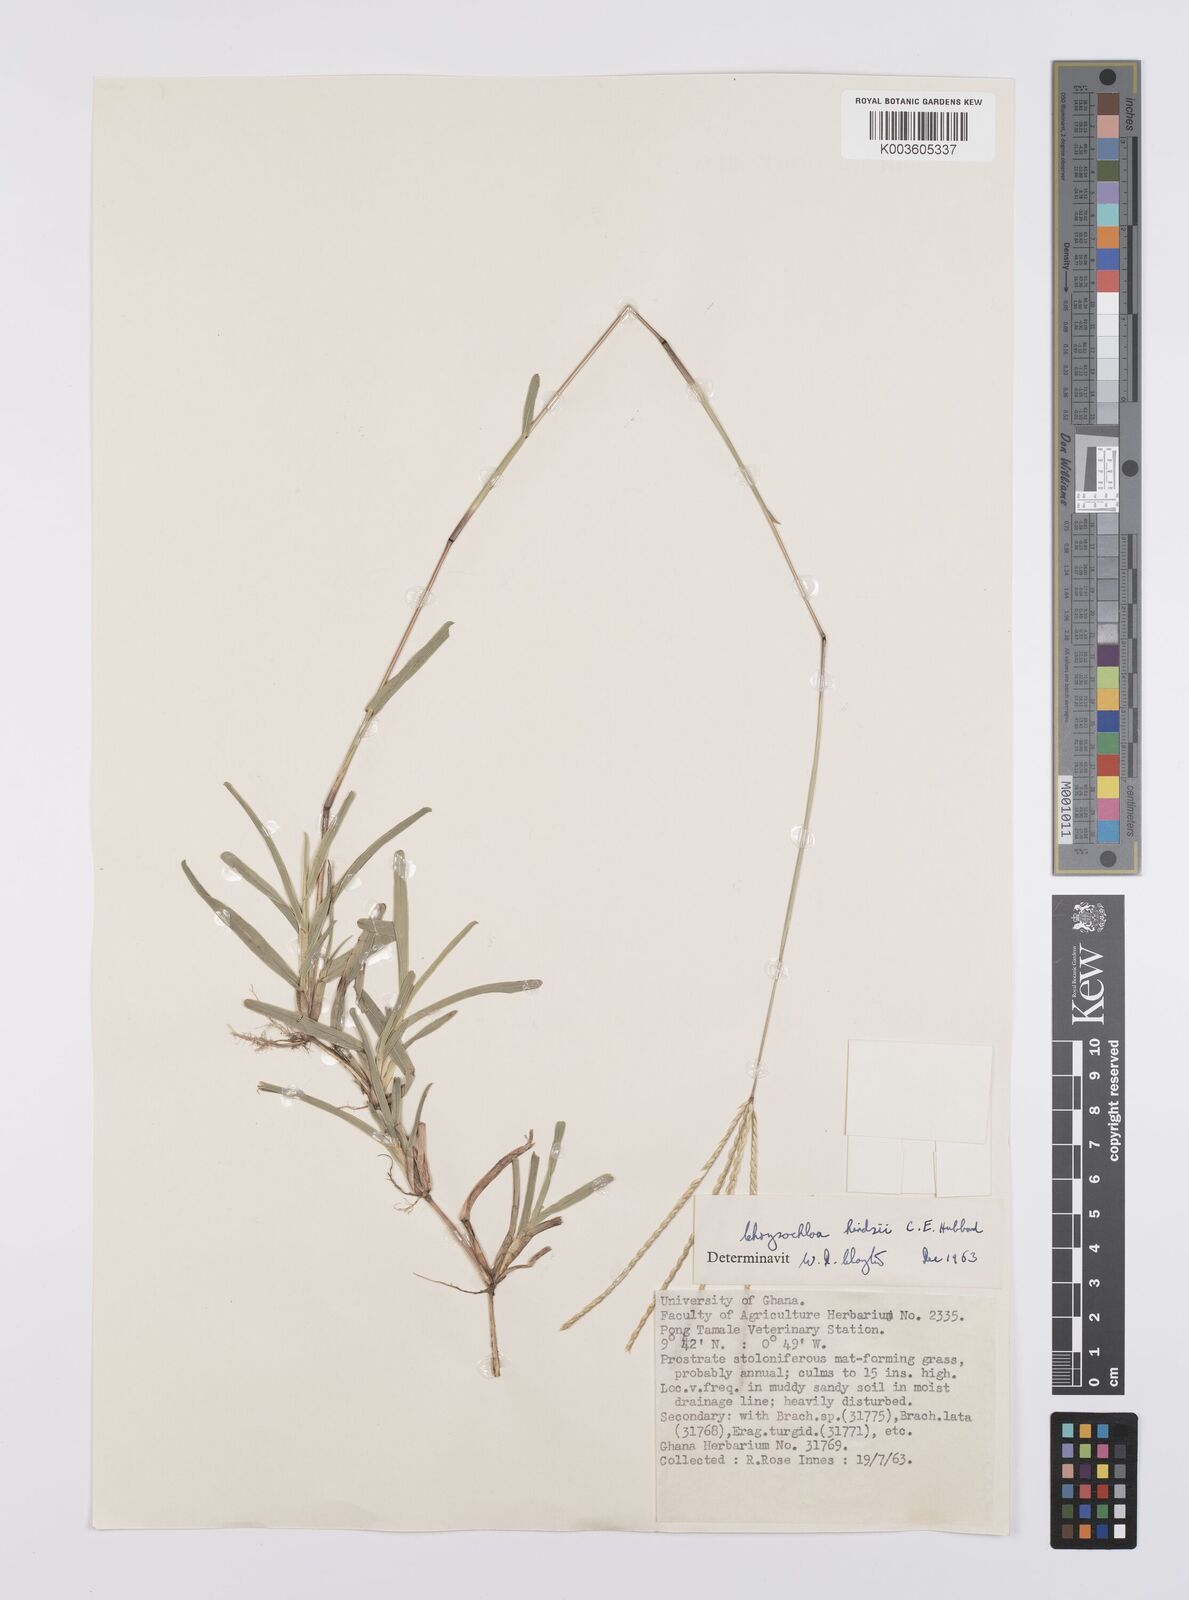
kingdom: Plantae
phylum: Tracheophyta
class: Liliopsida
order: Poales
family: Poaceae
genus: Chrysochloa
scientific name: Chrysochloa hindsii
